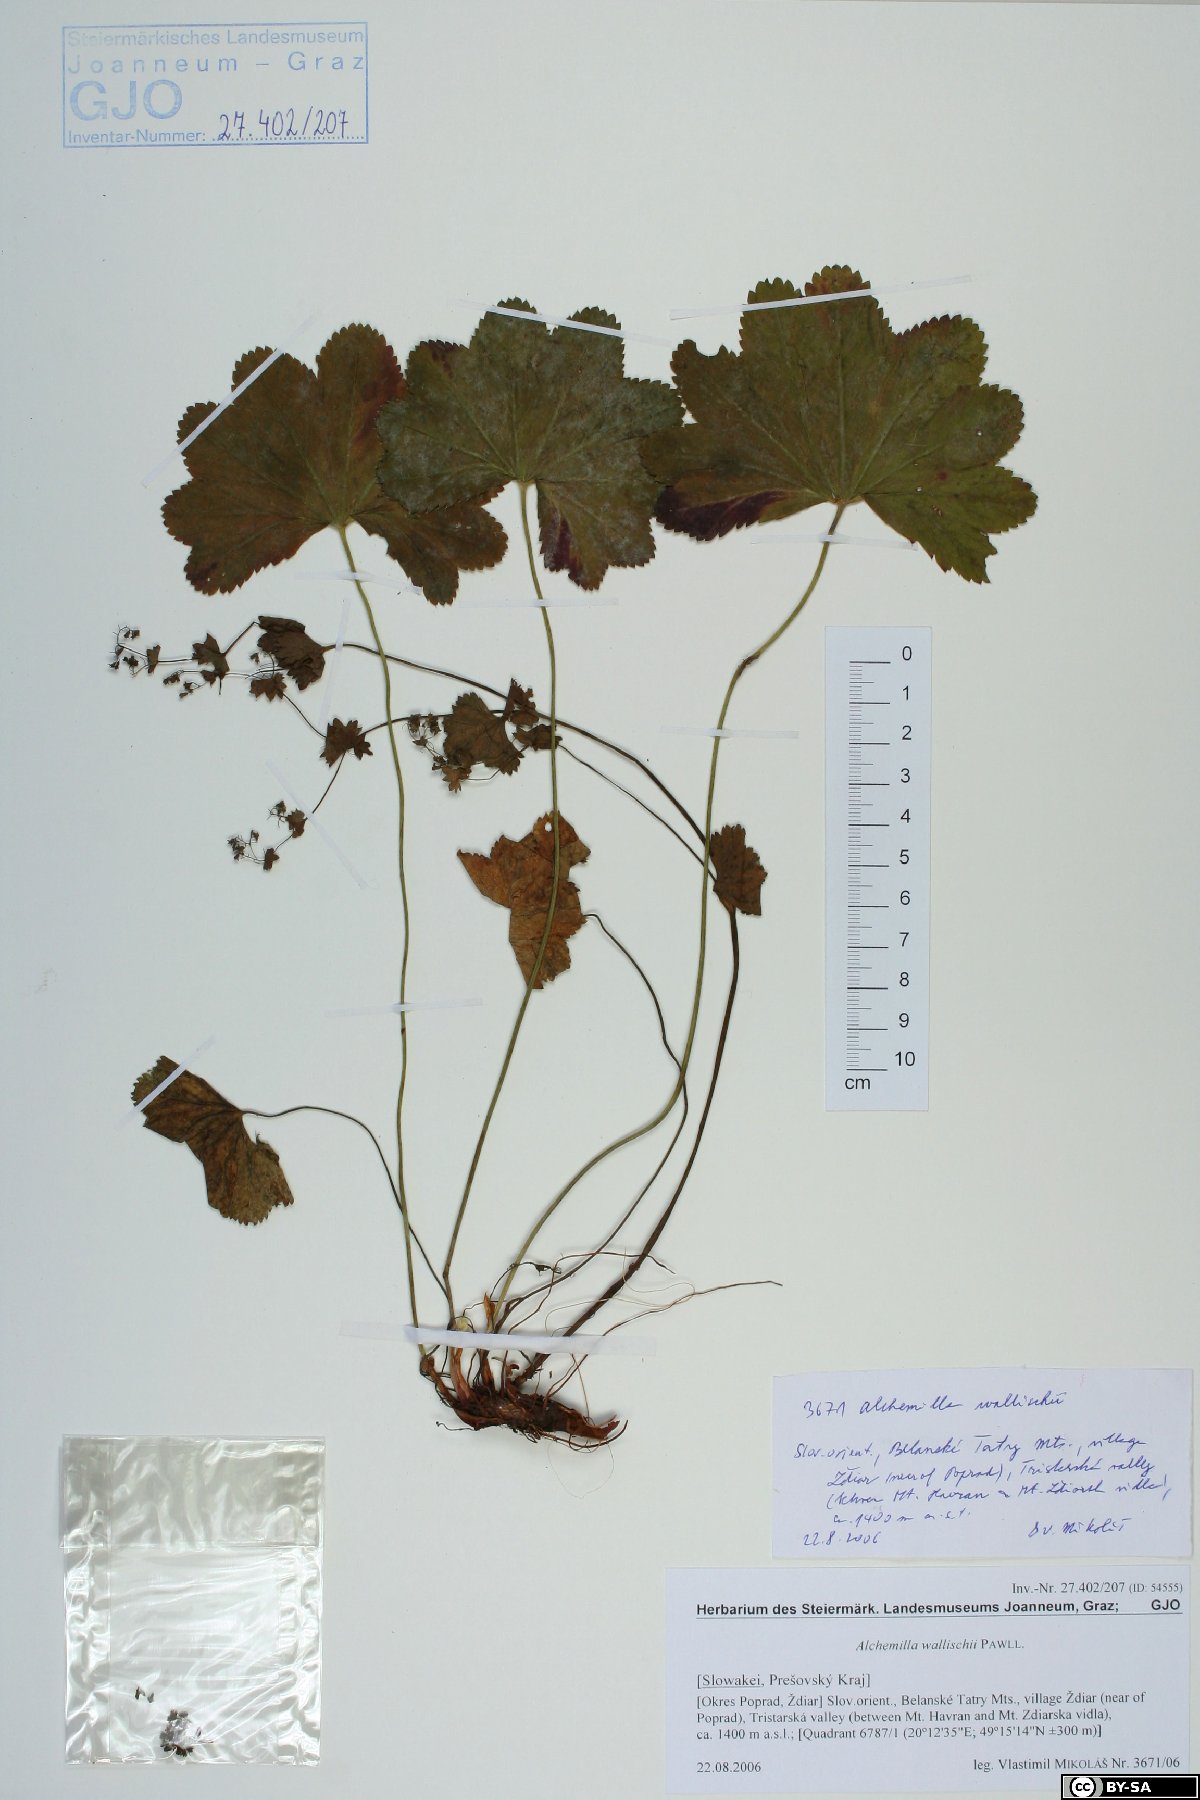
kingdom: Plantae
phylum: Tracheophyta
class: Magnoliopsida
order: Rosales
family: Rosaceae
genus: Alchemilla
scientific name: Alchemilla walasii
